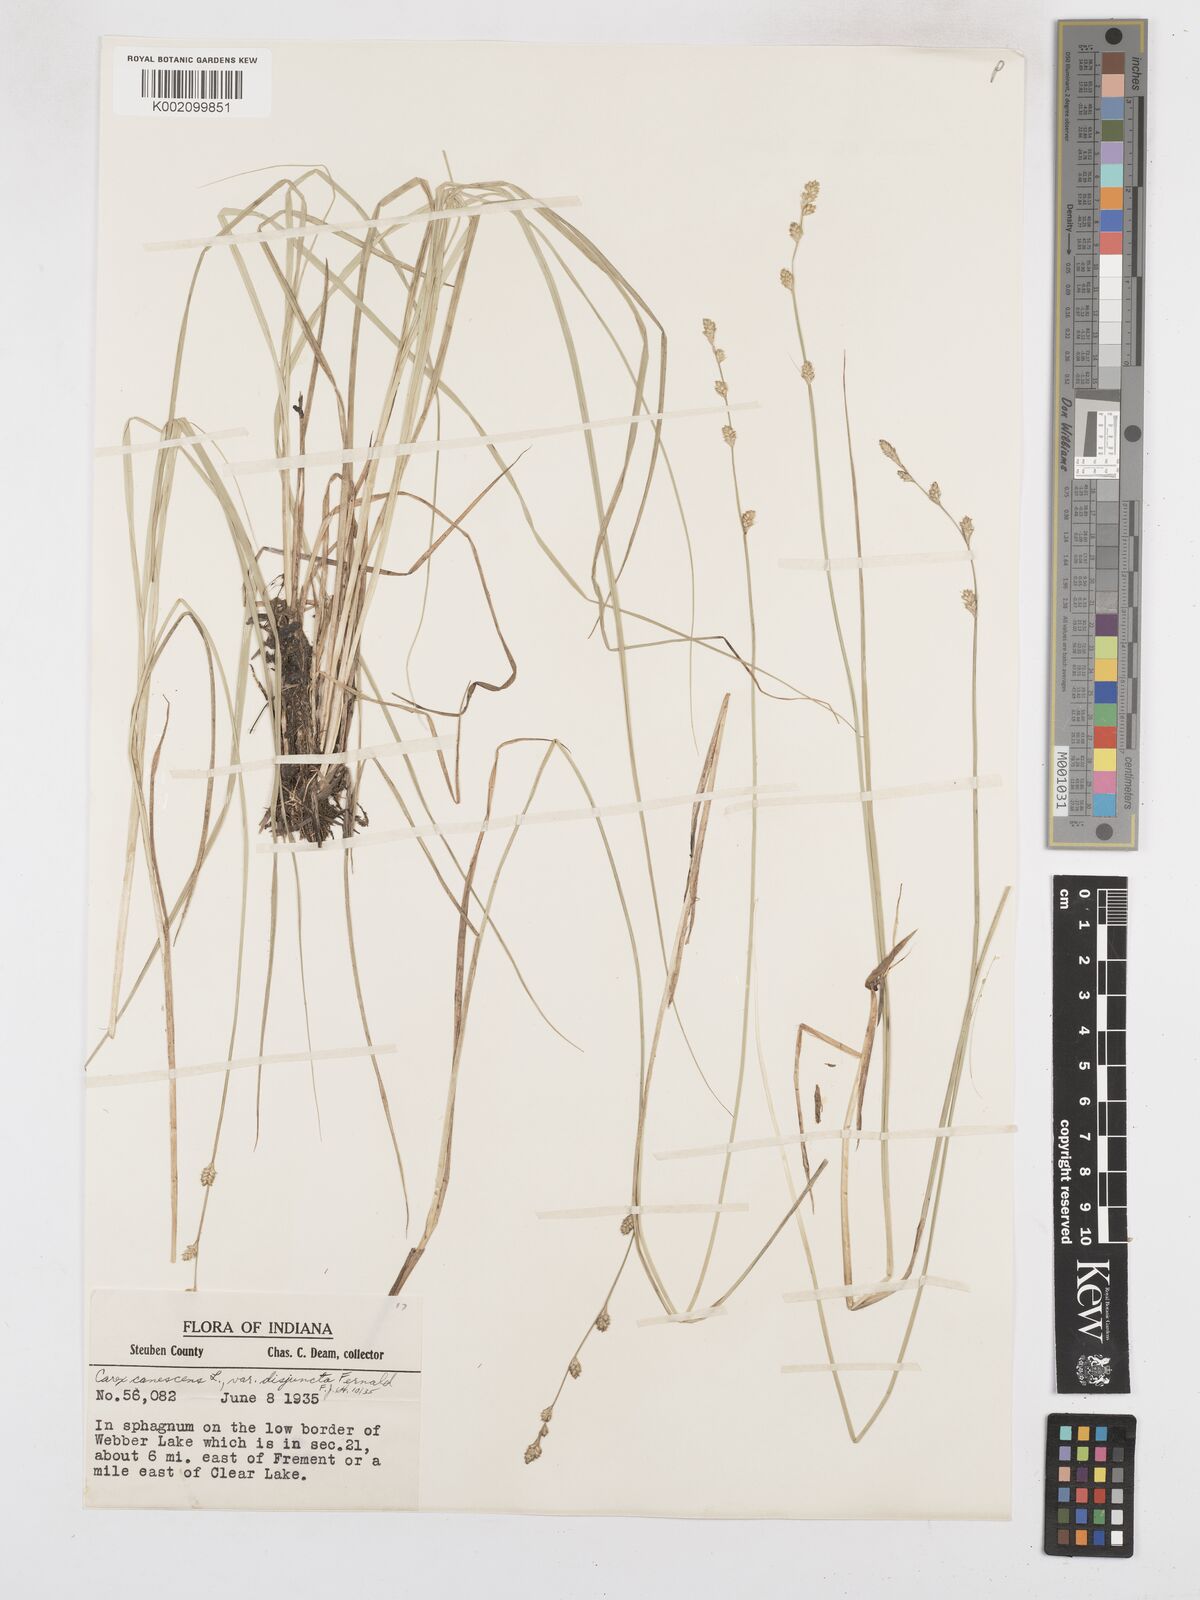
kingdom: Plantae
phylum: Tracheophyta
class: Liliopsida
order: Poales
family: Cyperaceae
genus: Carex
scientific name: Carex curta
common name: White sedge
